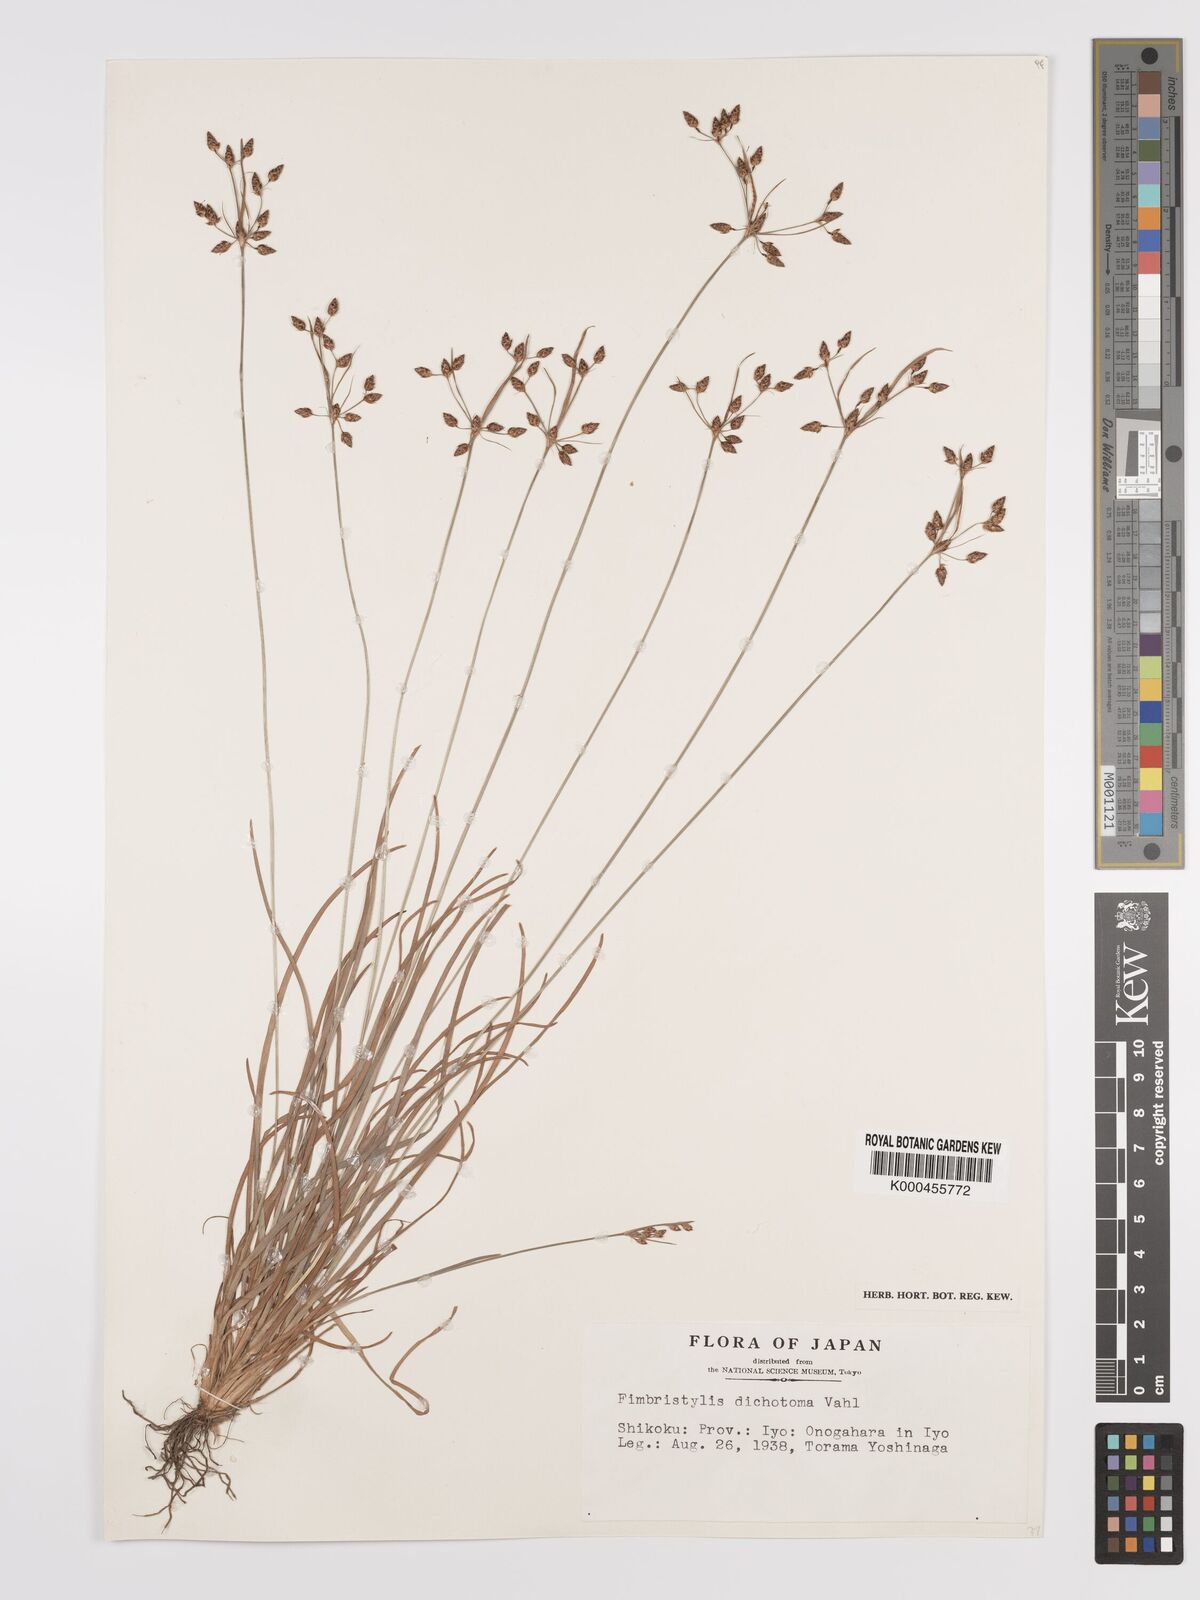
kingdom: Plantae
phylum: Tracheophyta
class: Liliopsida
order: Poales
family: Cyperaceae
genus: Fimbristylis
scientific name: Fimbristylis dichotoma
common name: Forked fimbry
